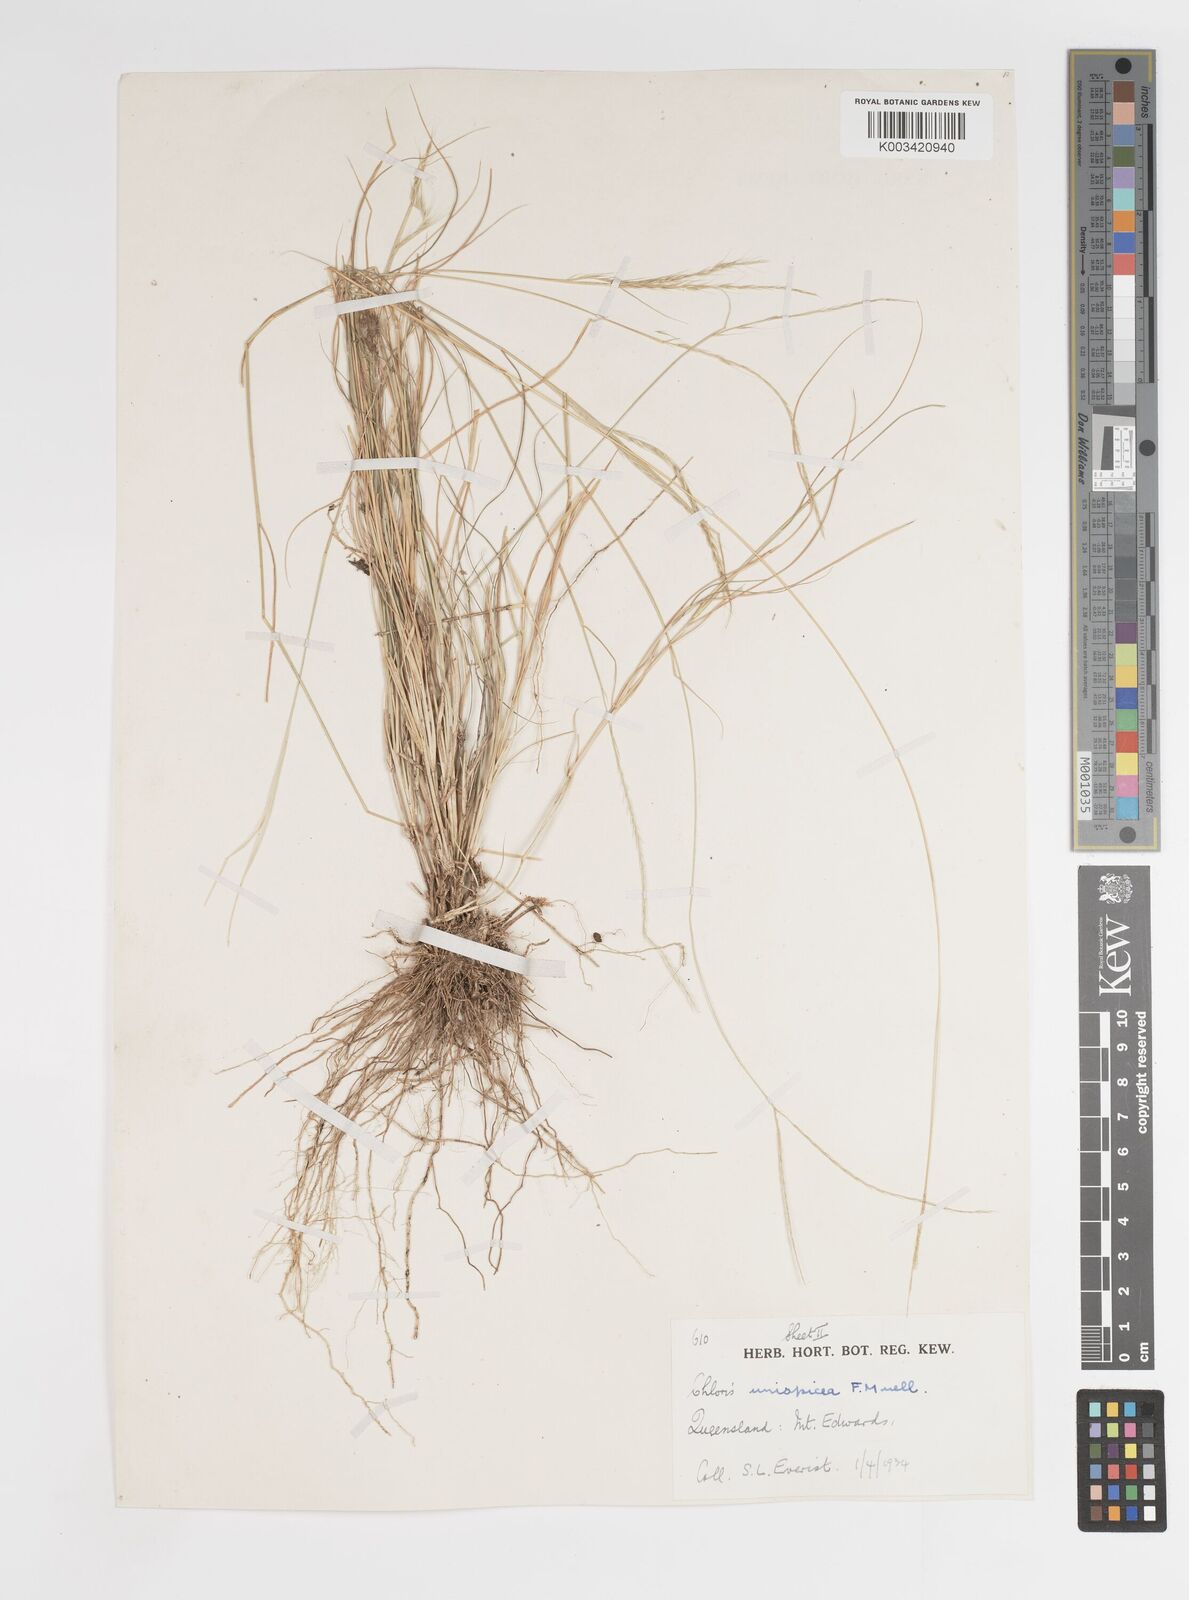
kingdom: Plantae
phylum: Tracheophyta
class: Liliopsida
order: Poales
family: Poaceae
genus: Enteropogon
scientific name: Enteropogon unispiceus
